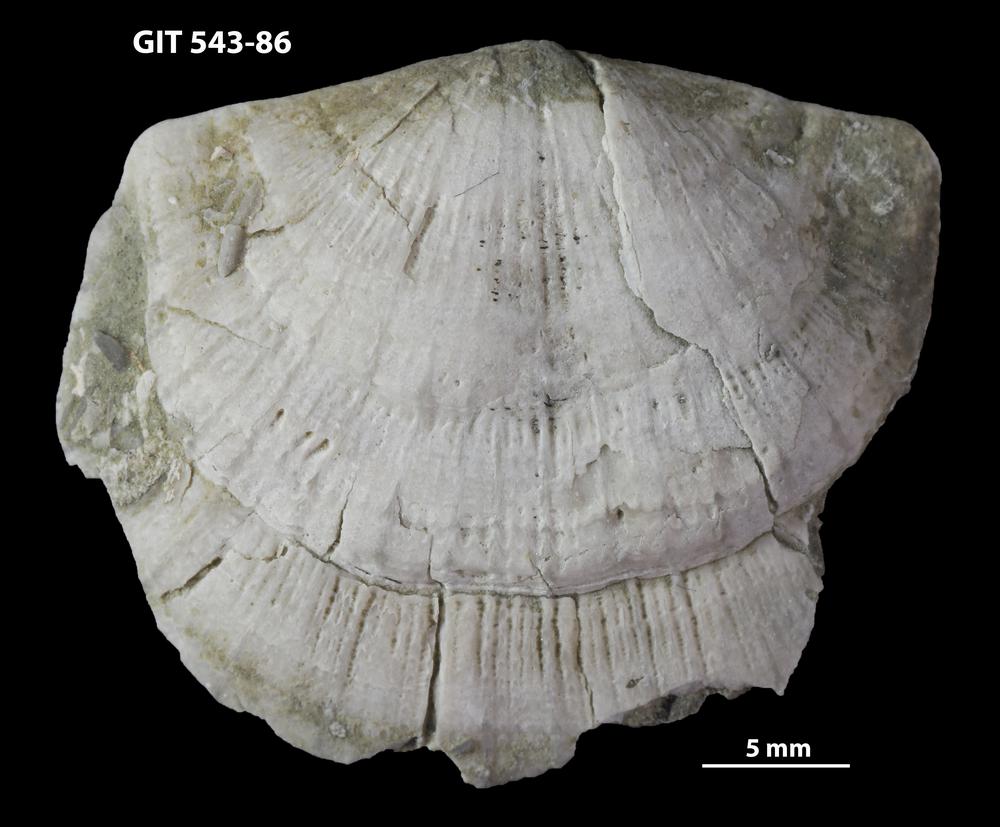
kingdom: Animalia
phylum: Brachiopoda
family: Gonambonitidae
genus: Estlandia
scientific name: Estlandia
